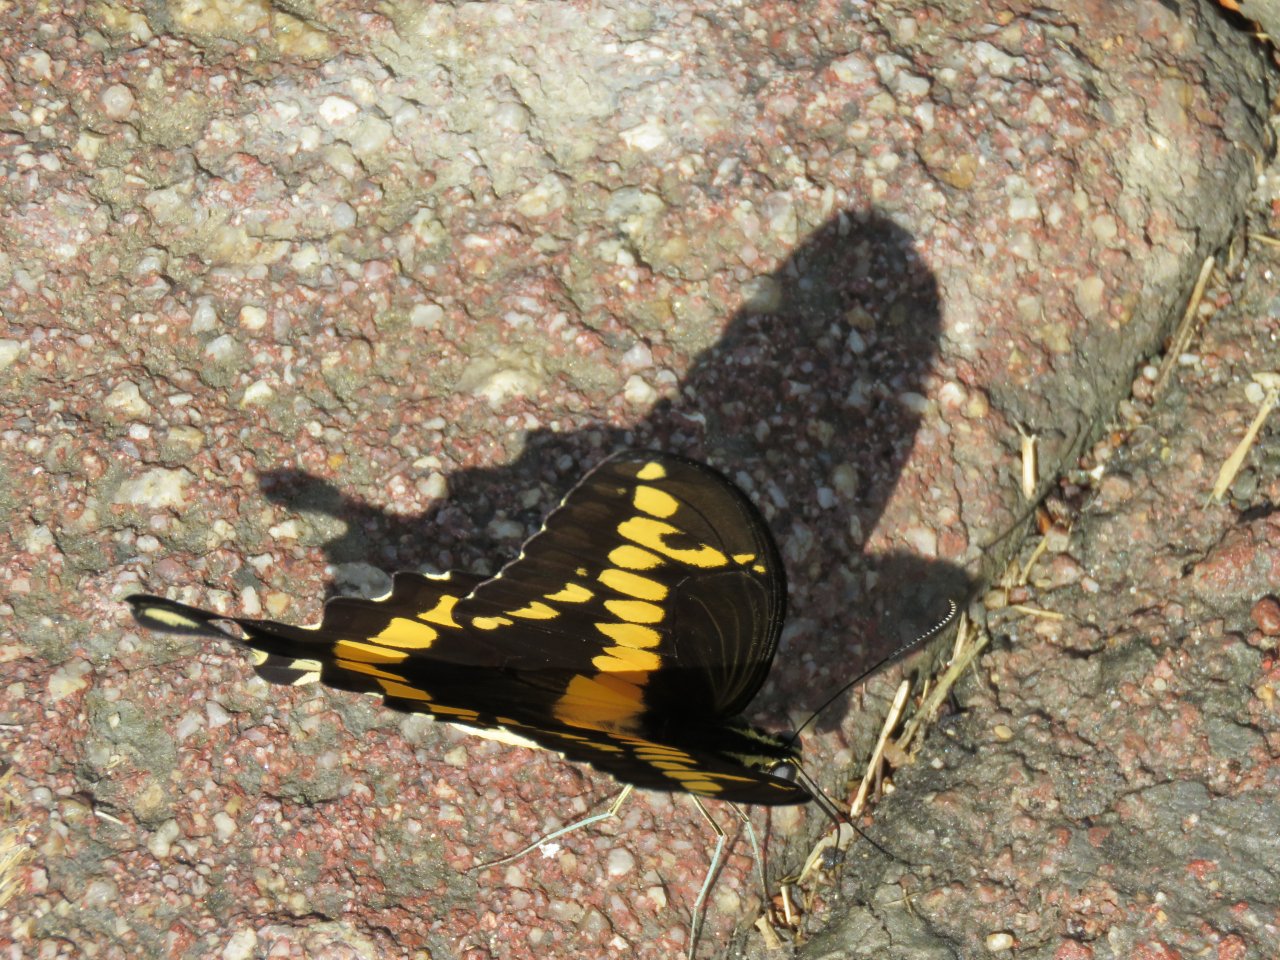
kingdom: Animalia
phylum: Arthropoda
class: Insecta
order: Lepidoptera
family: Papilionidae
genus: Papilio
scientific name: Papilio rumiko
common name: Western Giant Swallowtail
